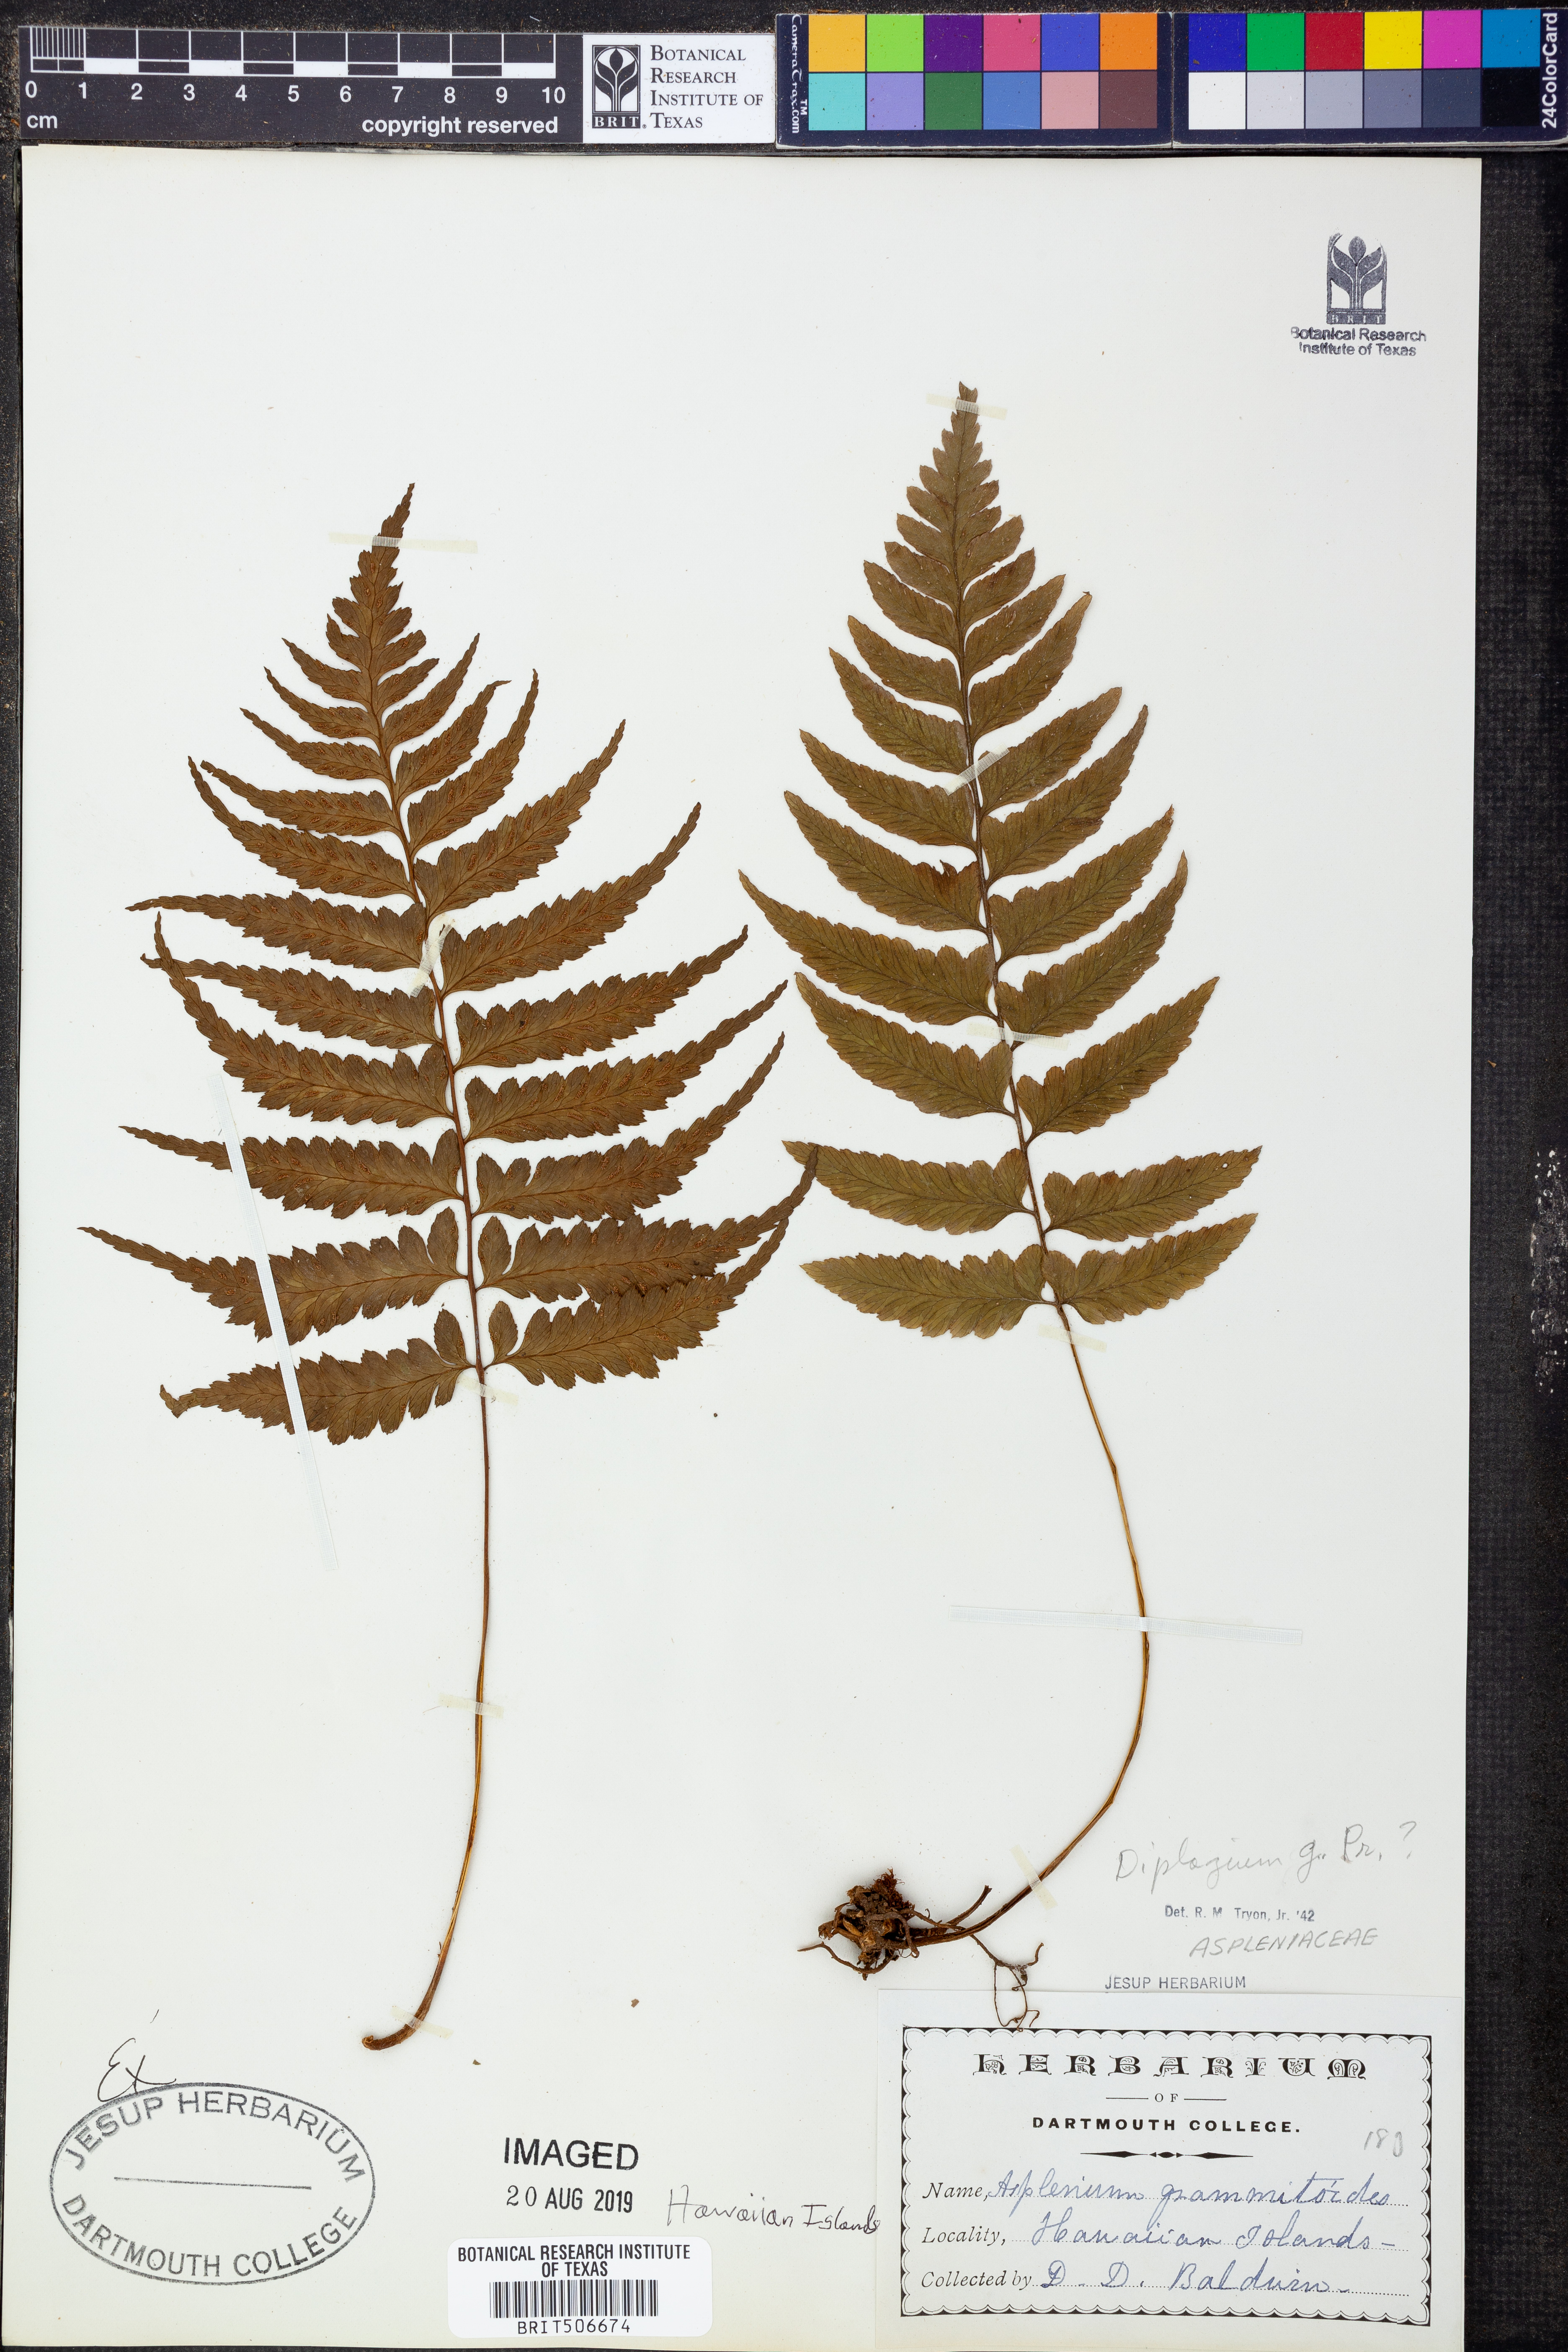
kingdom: Plantae
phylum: Tracheophyta
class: Polypodiopsida
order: Polypodiales
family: Athyriaceae
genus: Deparia
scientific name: Deparia confluens
